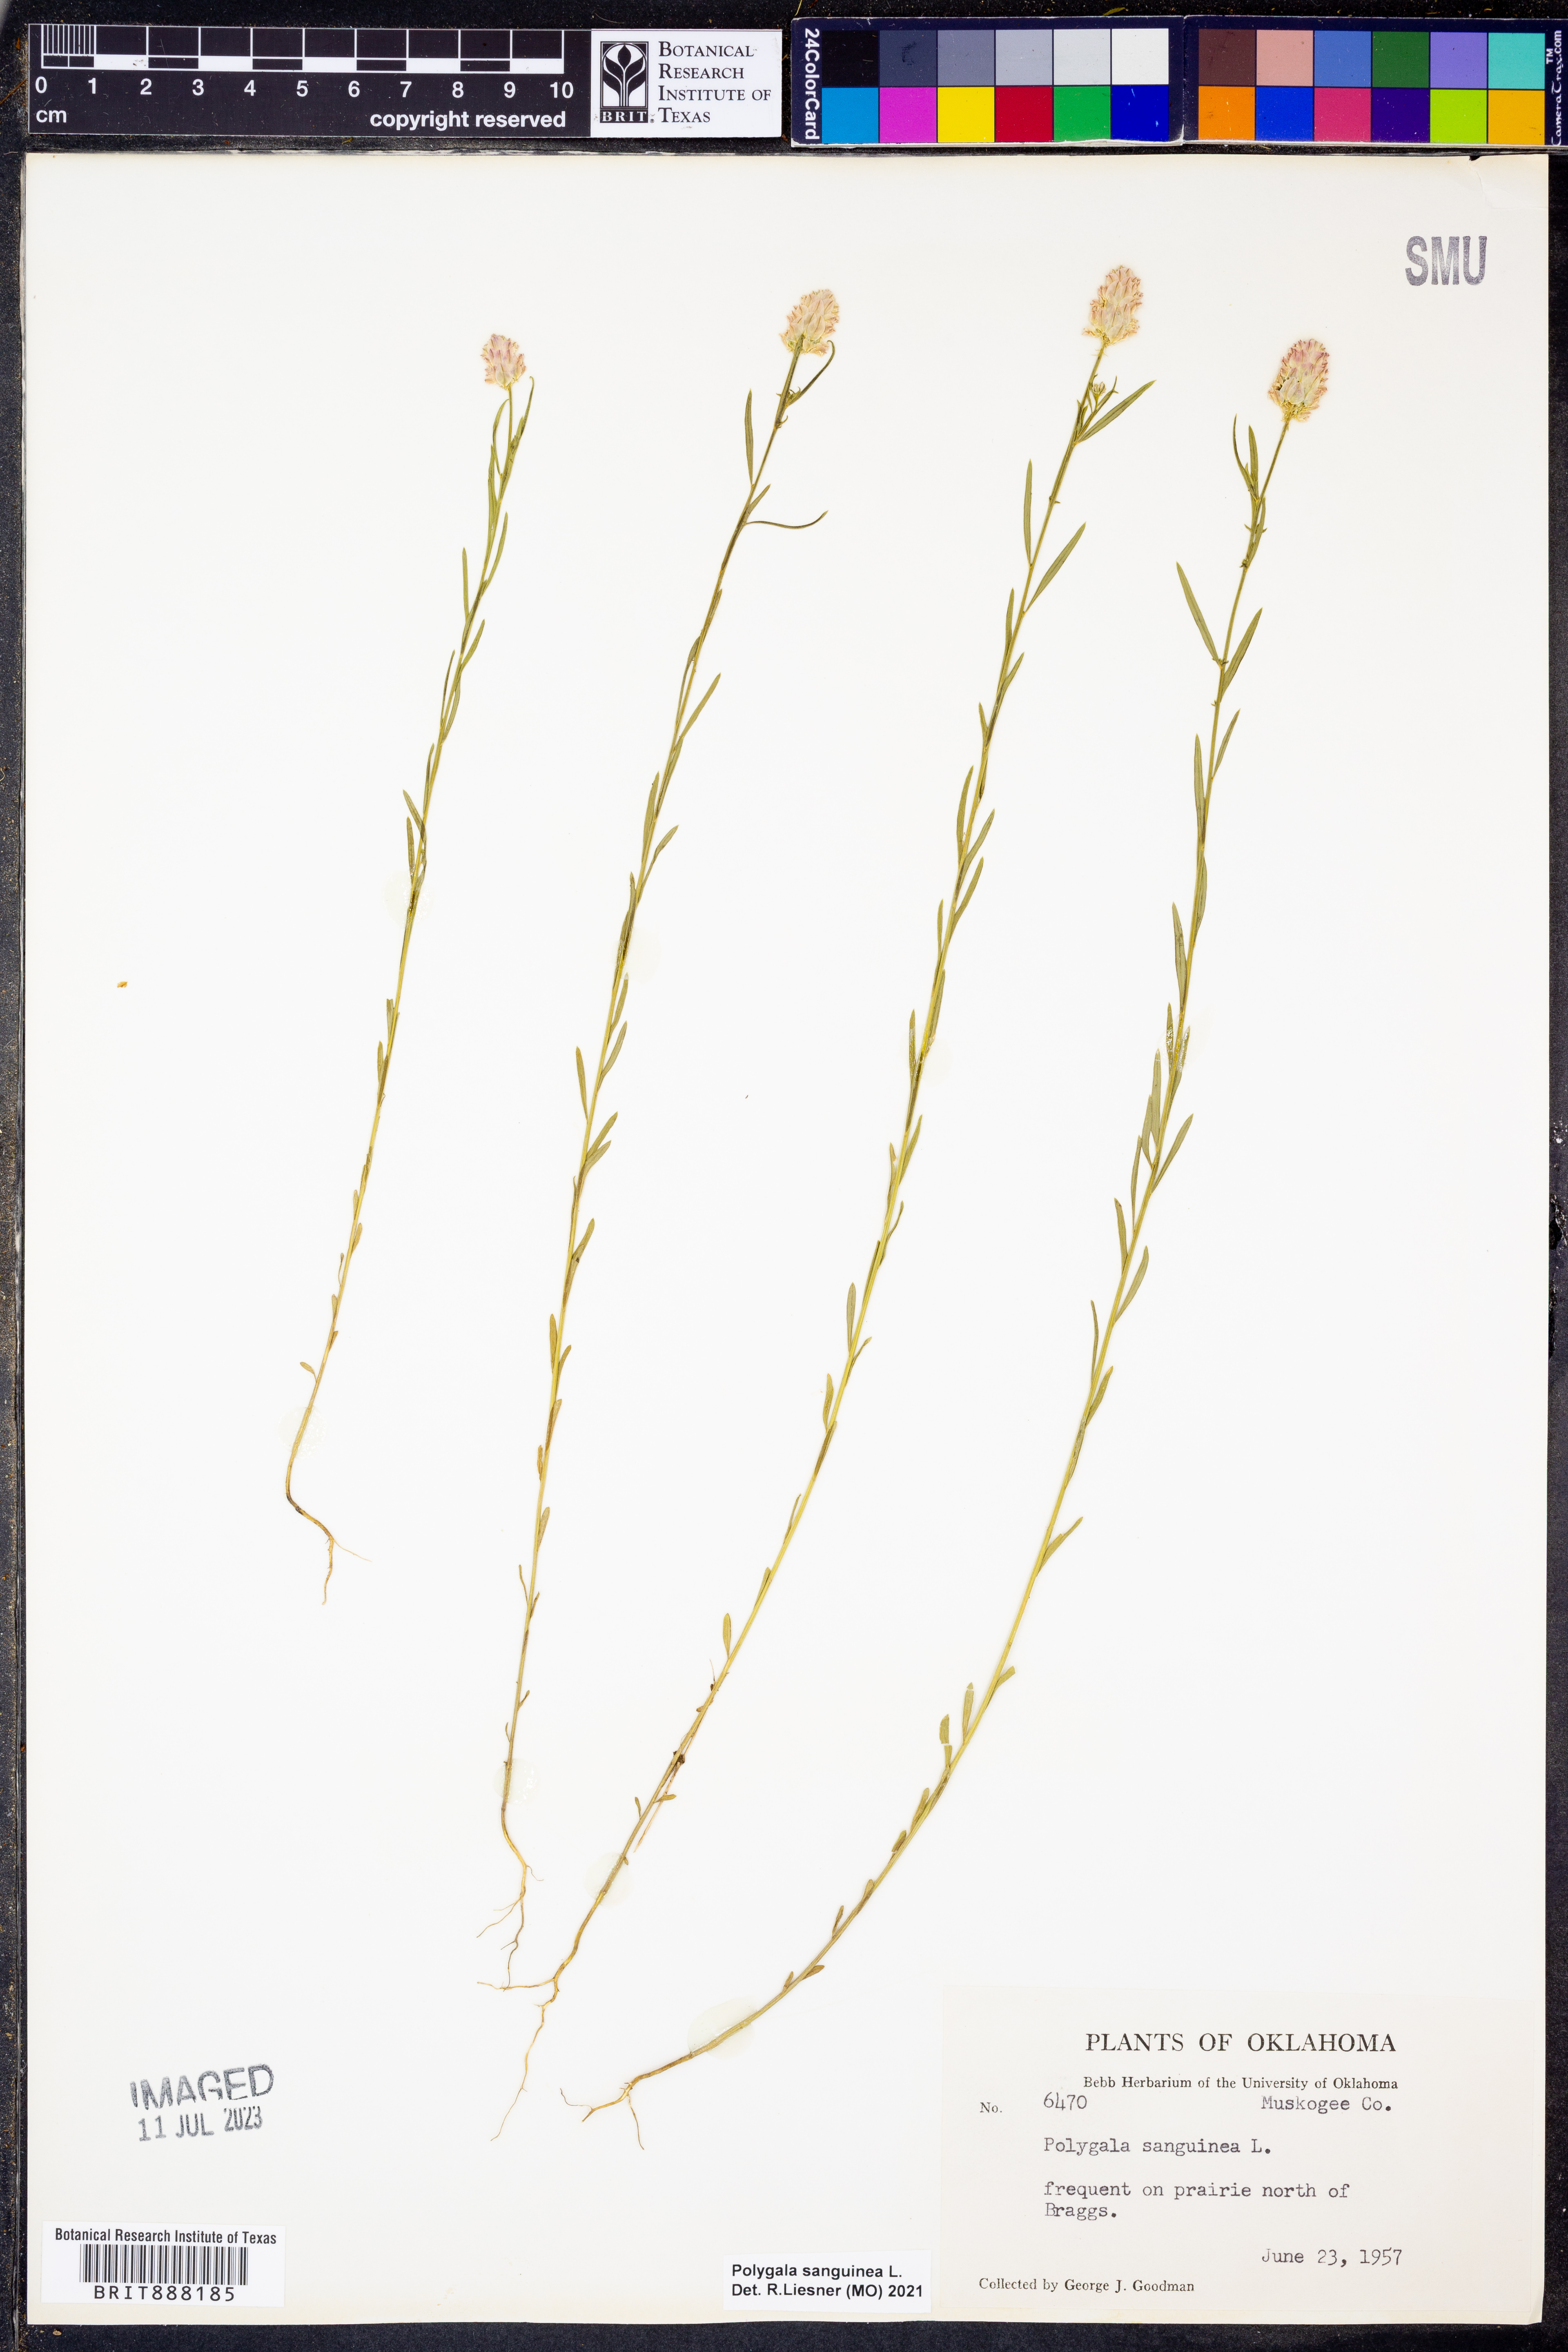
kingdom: Plantae
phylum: Tracheophyta
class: Magnoliopsida
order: Fabales
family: Polygalaceae
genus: Polygala
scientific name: Polygala sanguinea
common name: Blood milkwort
